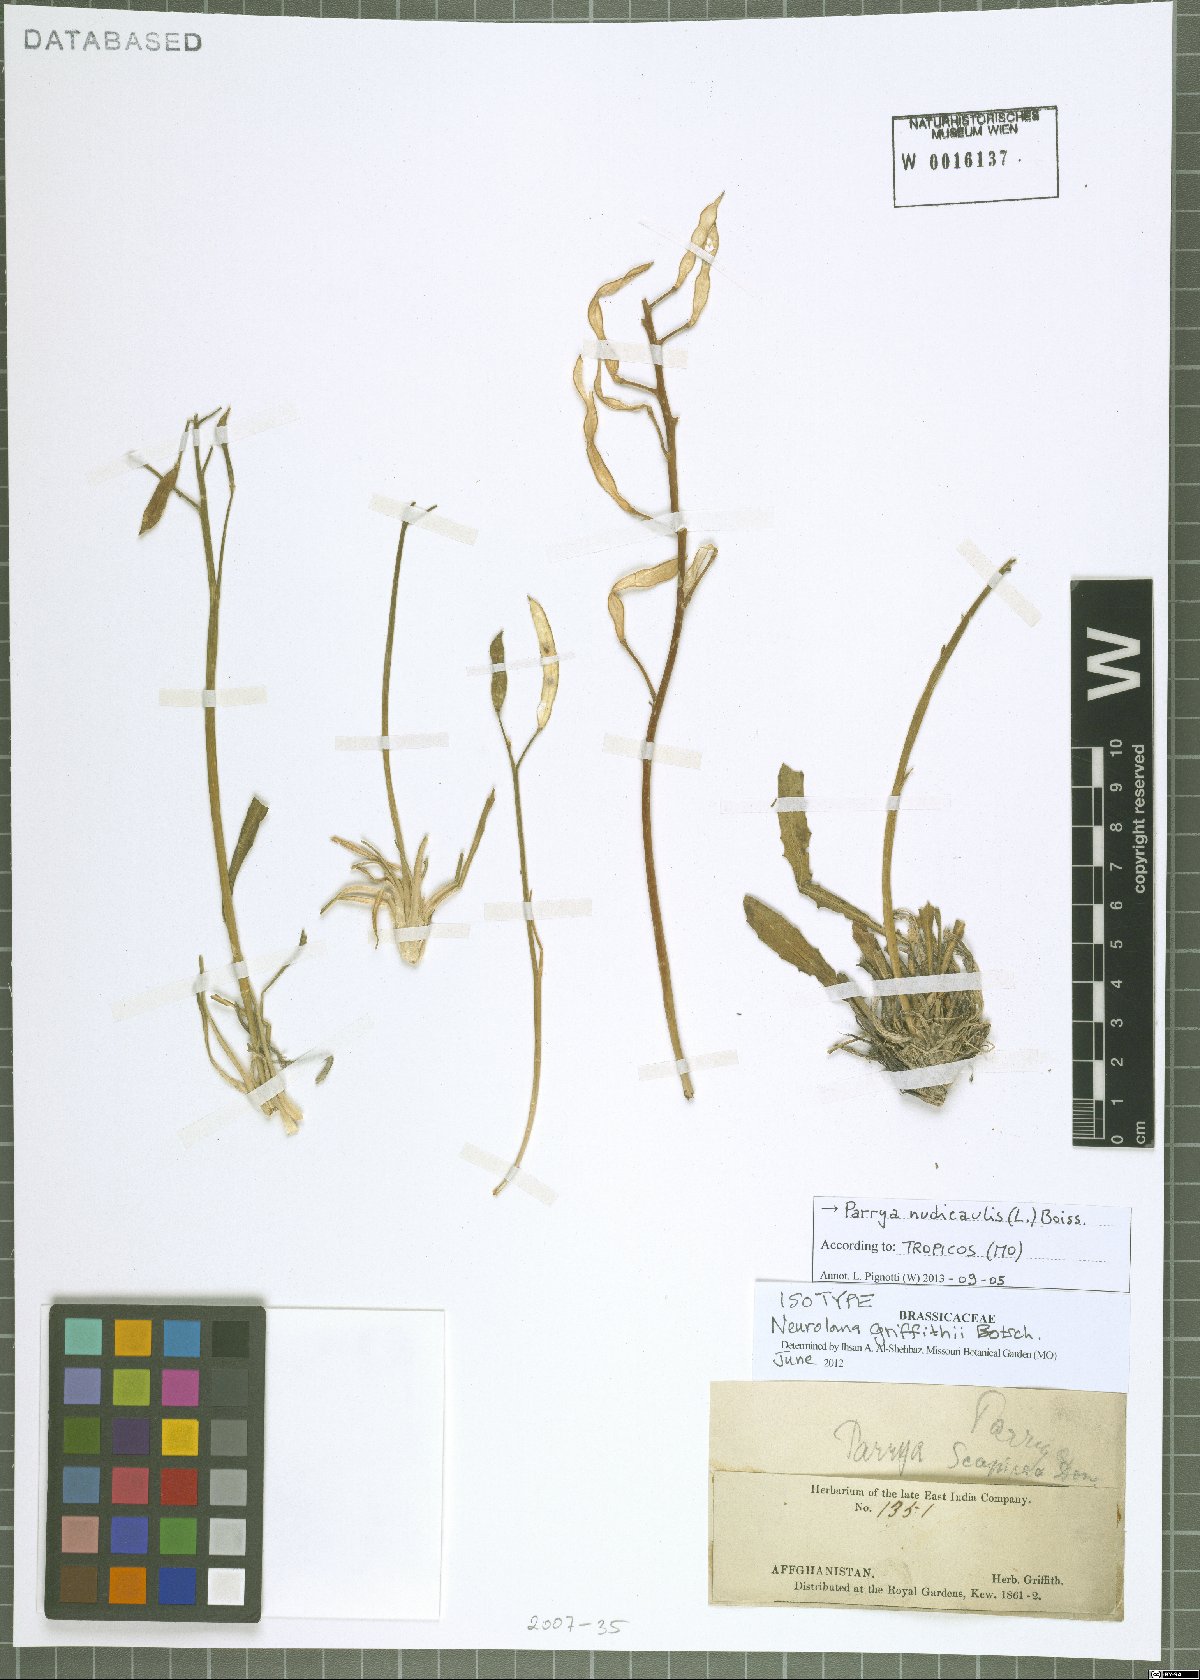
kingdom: Plantae
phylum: Tracheophyta
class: Magnoliopsida
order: Brassicales
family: Brassicaceae
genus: Parrya
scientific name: Parrya nudicaulis
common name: Naked-stemmed false wallflower
